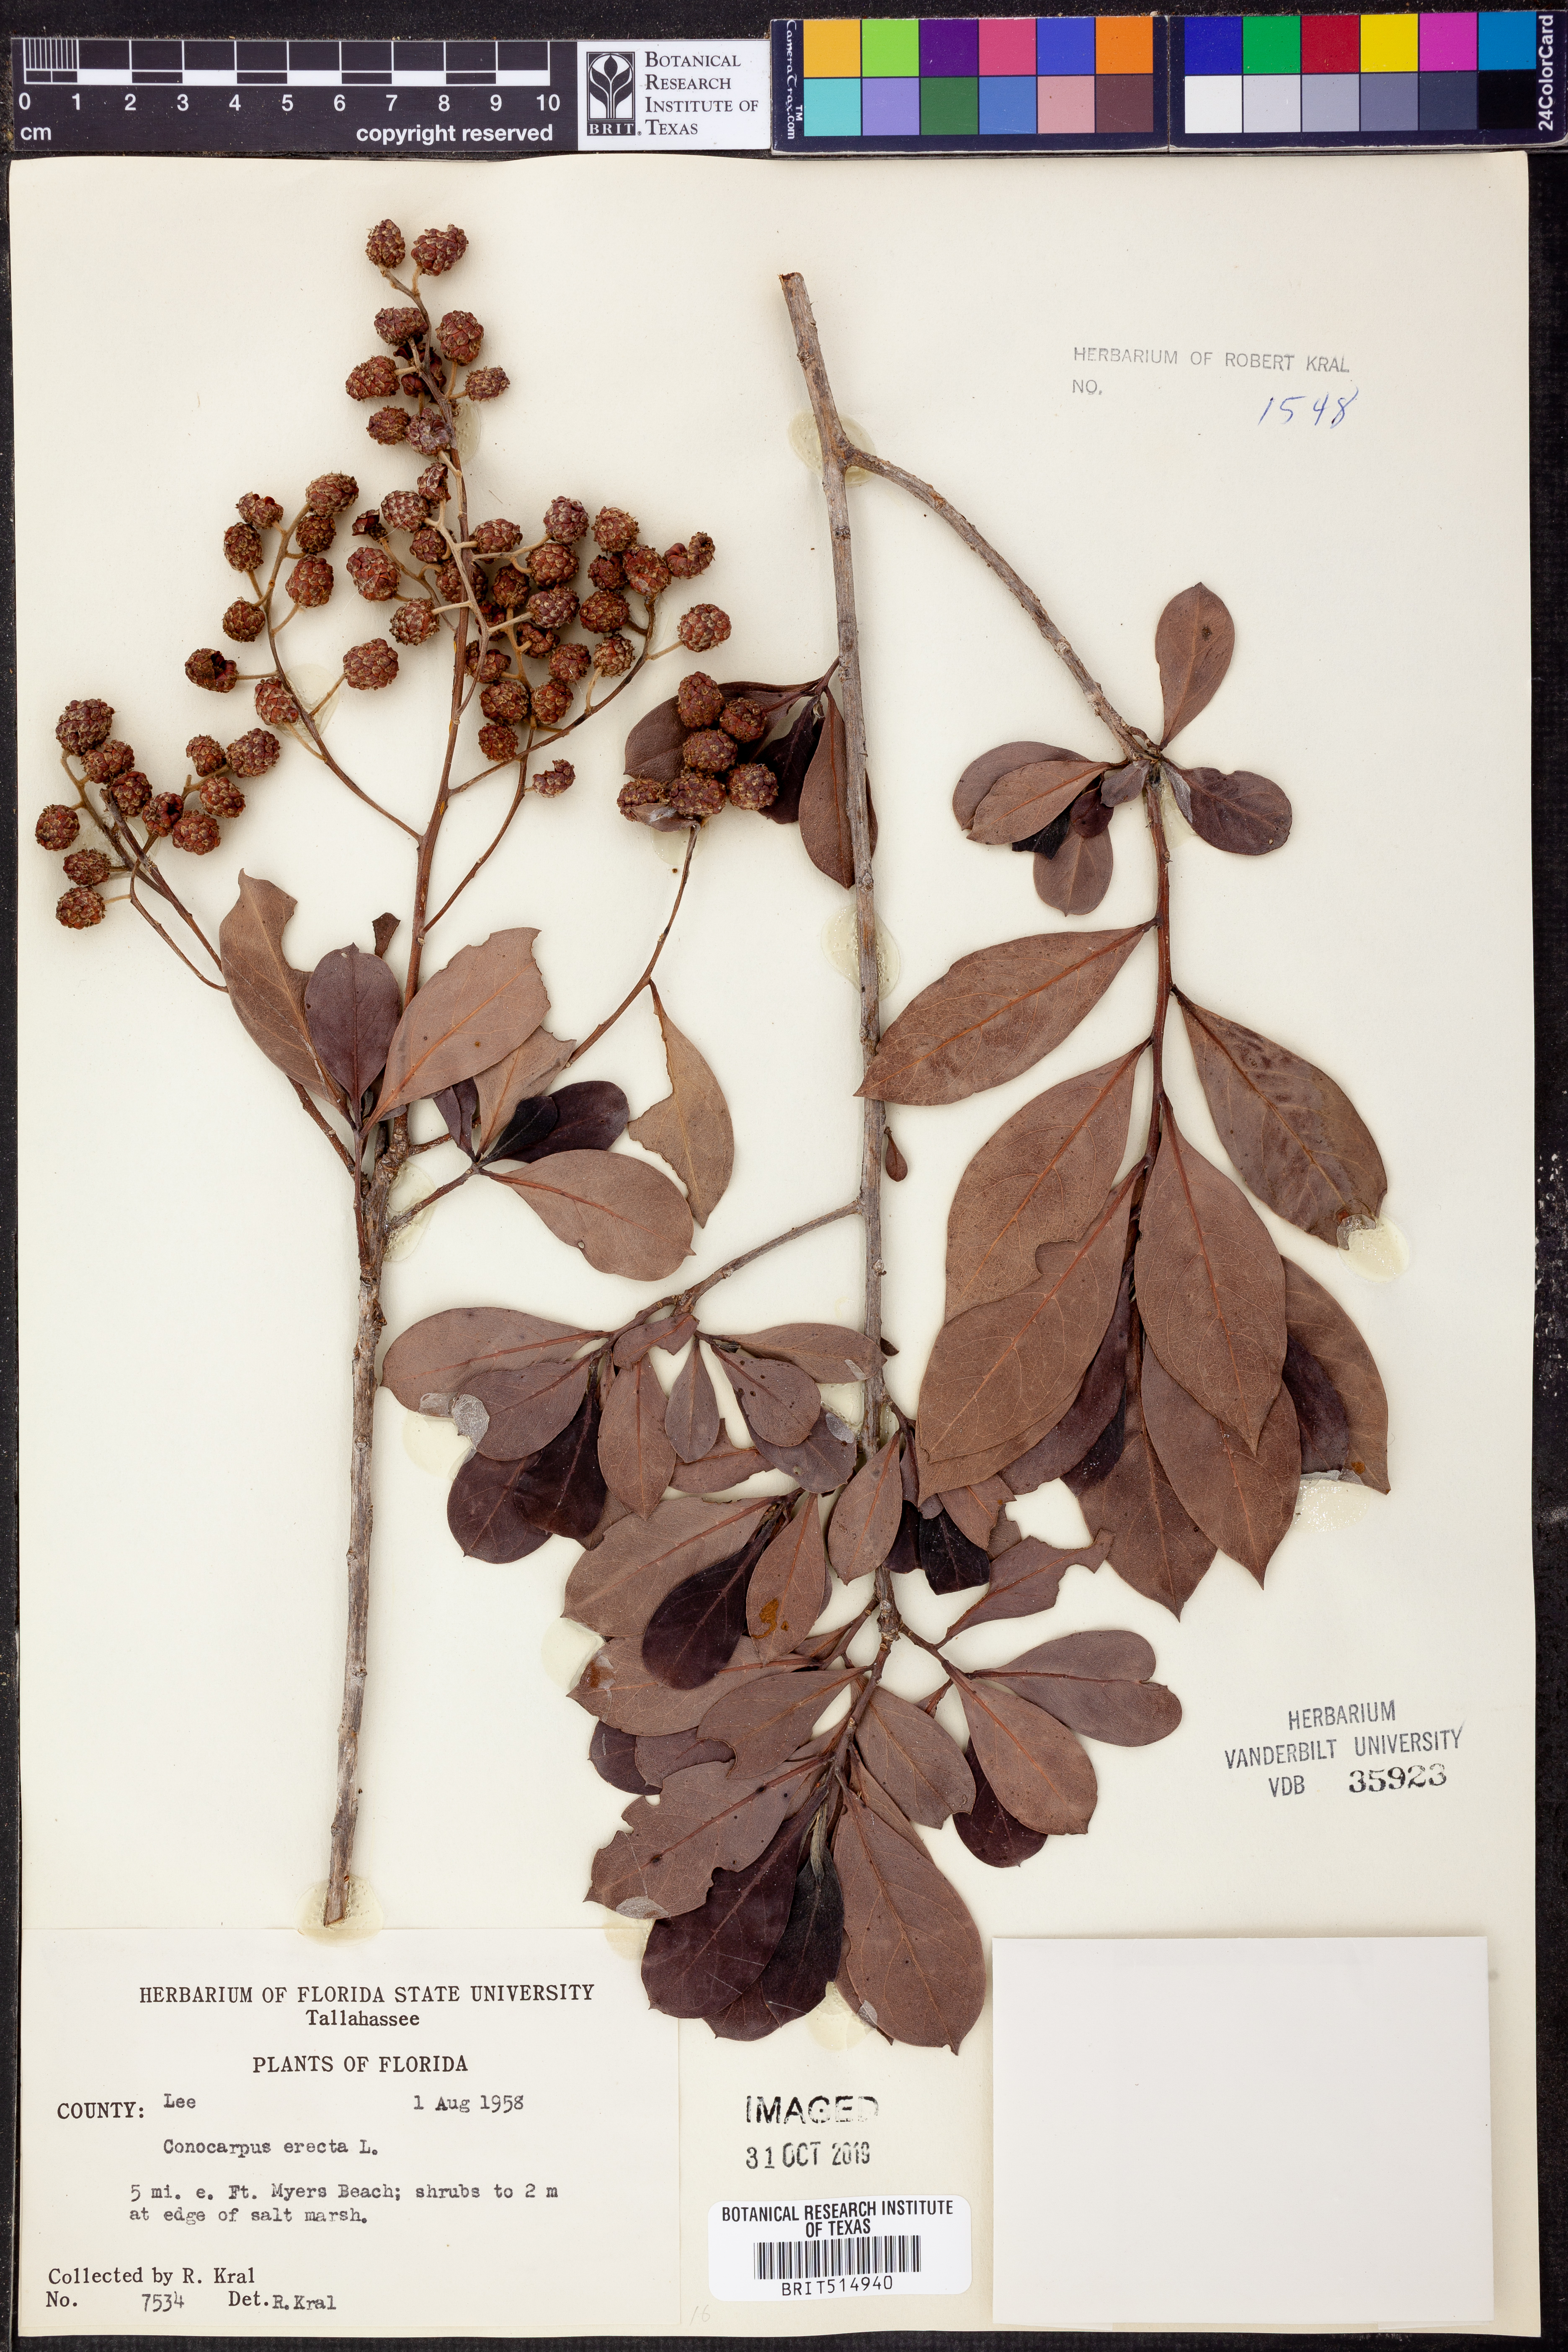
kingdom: Plantae
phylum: Tracheophyta
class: Magnoliopsida
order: Myrtales
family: Combretaceae
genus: Conocarpus
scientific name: Conocarpus erectus
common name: Button mangrove
